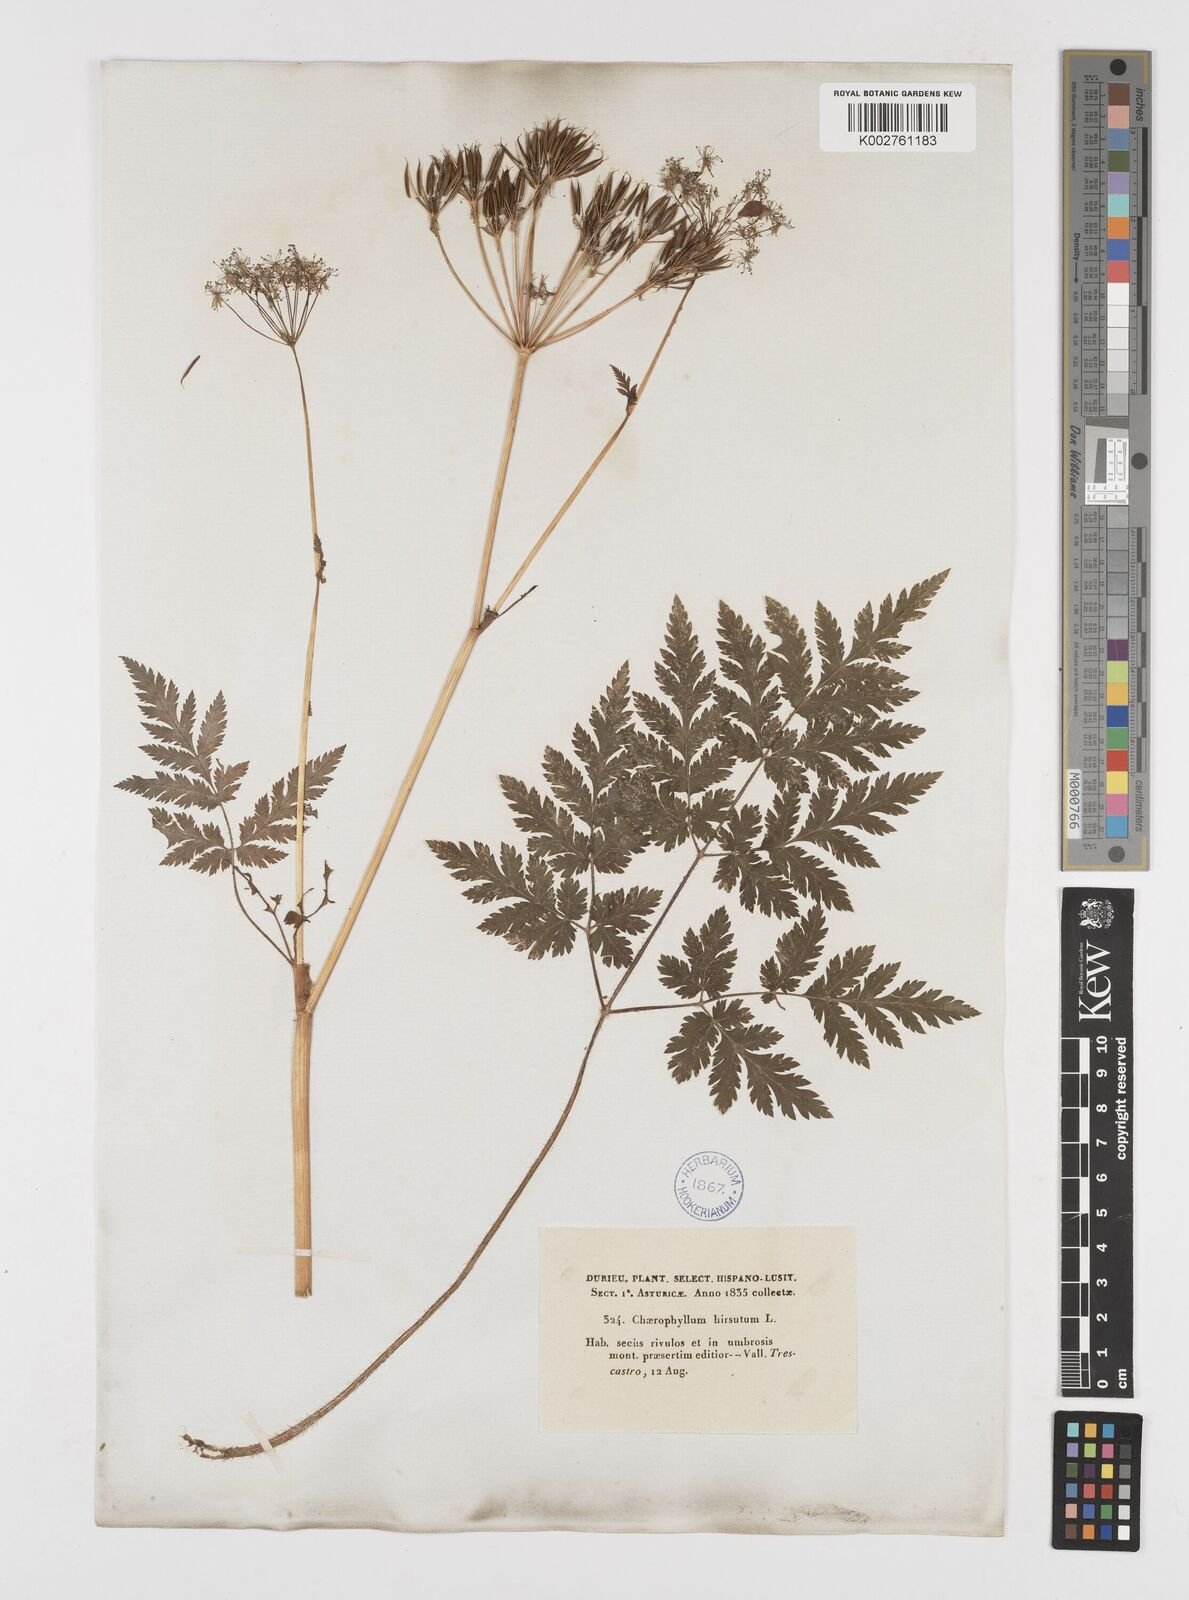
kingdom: Plantae
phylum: Tracheophyta
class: Magnoliopsida
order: Apiales
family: Apiaceae
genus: Chaerophyllum
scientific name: Chaerophyllum hirsutum
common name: Hairy chervil
